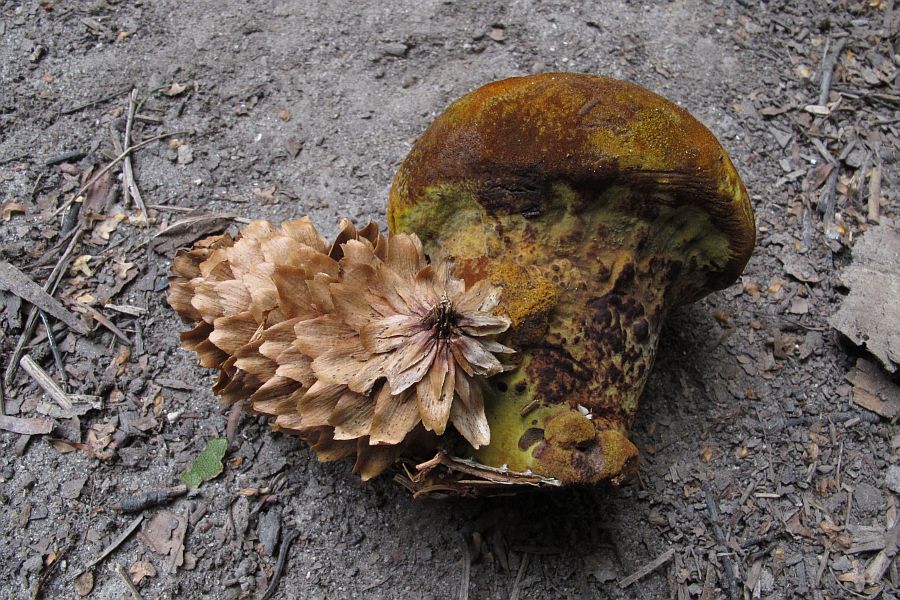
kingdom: Fungi
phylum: Basidiomycota
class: Agaricomycetes
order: Polyporales
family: Laetiporaceae
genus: Phaeolus
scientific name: Phaeolus schweinitzii
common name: brunporesvamp
